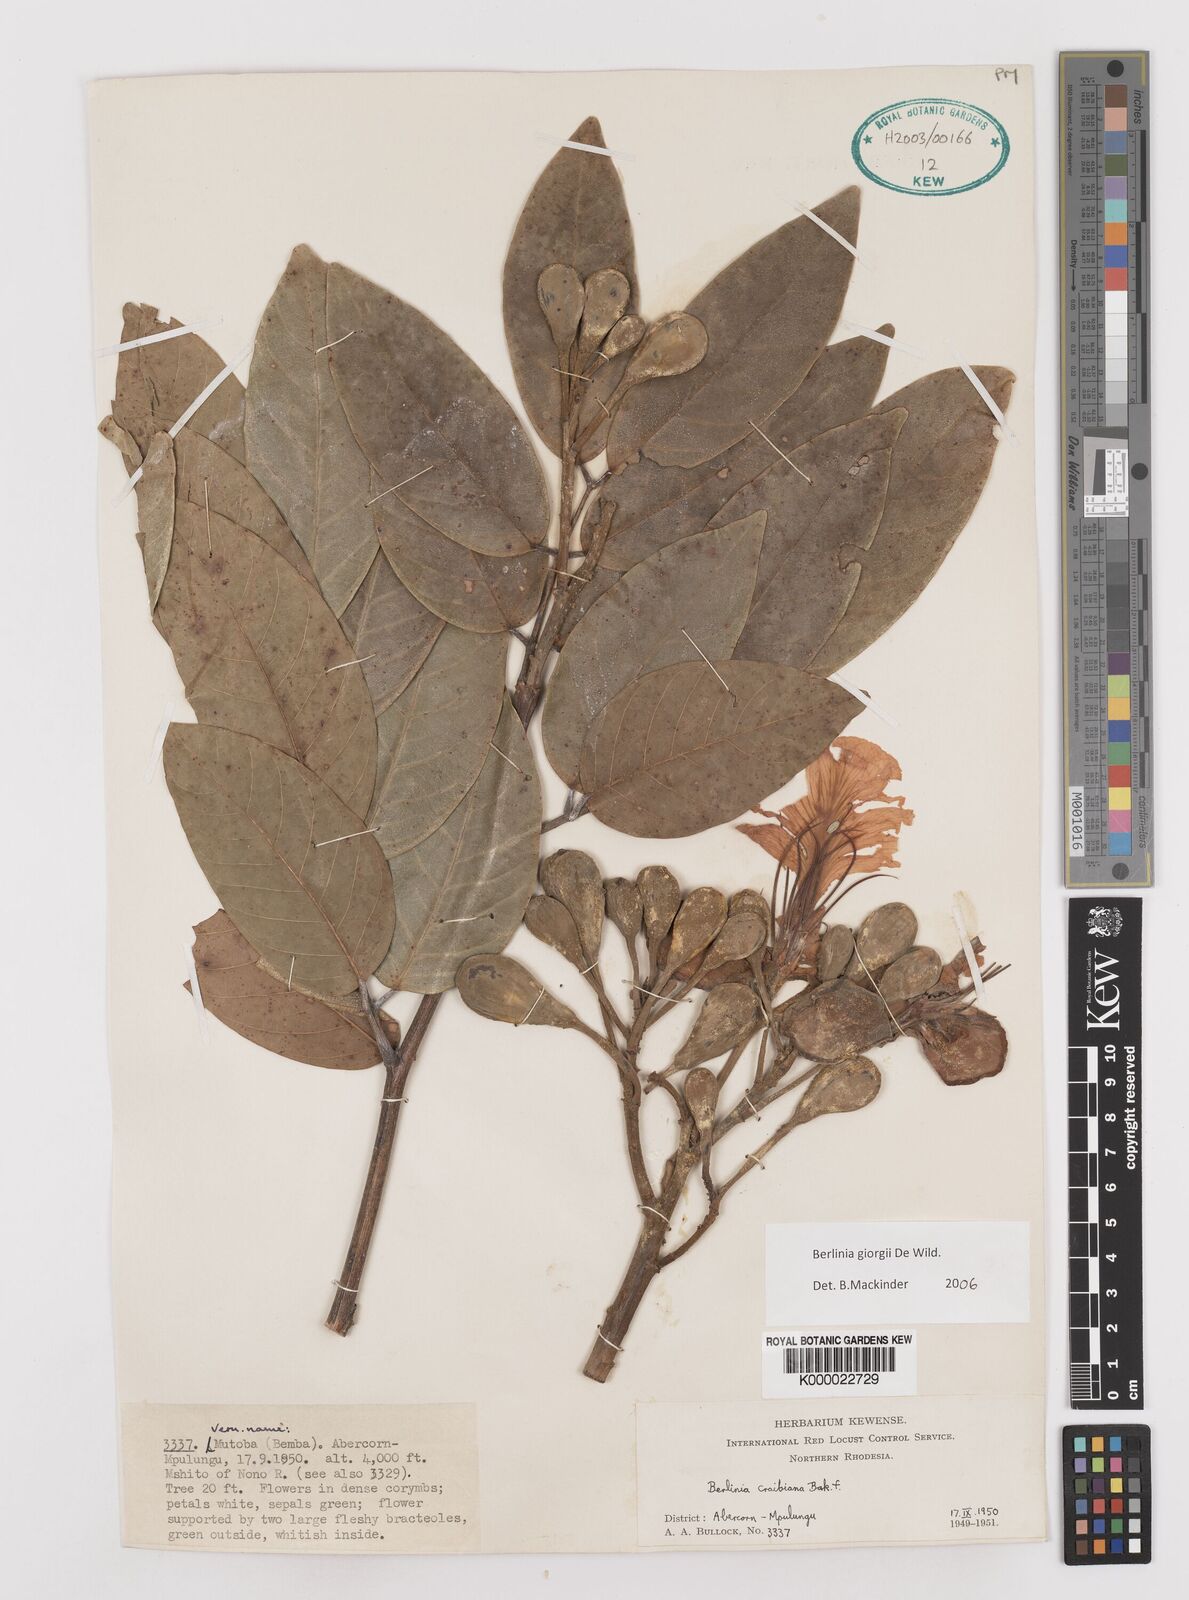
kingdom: Plantae
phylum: Tracheophyta
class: Magnoliopsida
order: Fabales
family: Fabaceae
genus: Berlinia
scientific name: Berlinia giorgii
